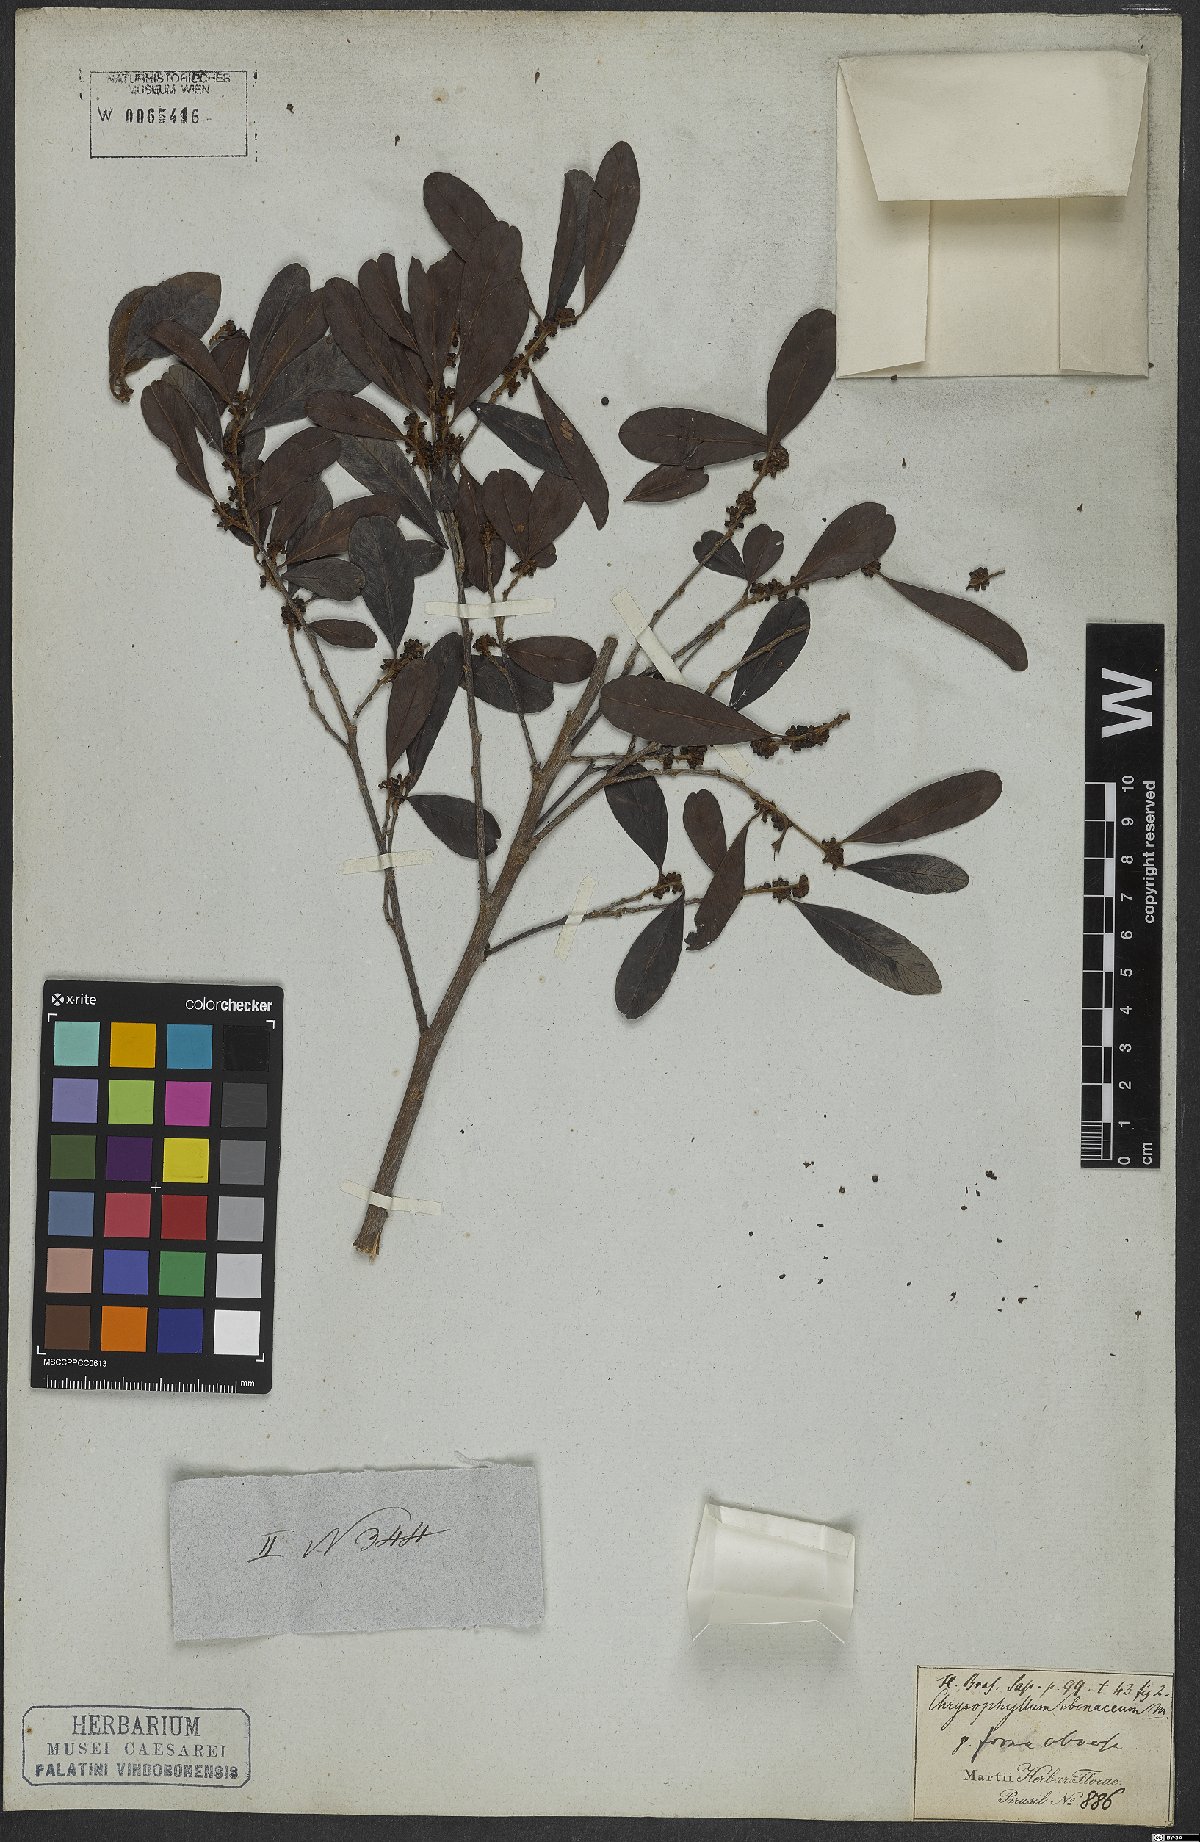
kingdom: Plantae
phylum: Tracheophyta
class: Magnoliopsida
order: Ericales
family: Sapotaceae
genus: Chrysophyllum
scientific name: Chrysophyllum marginatum
